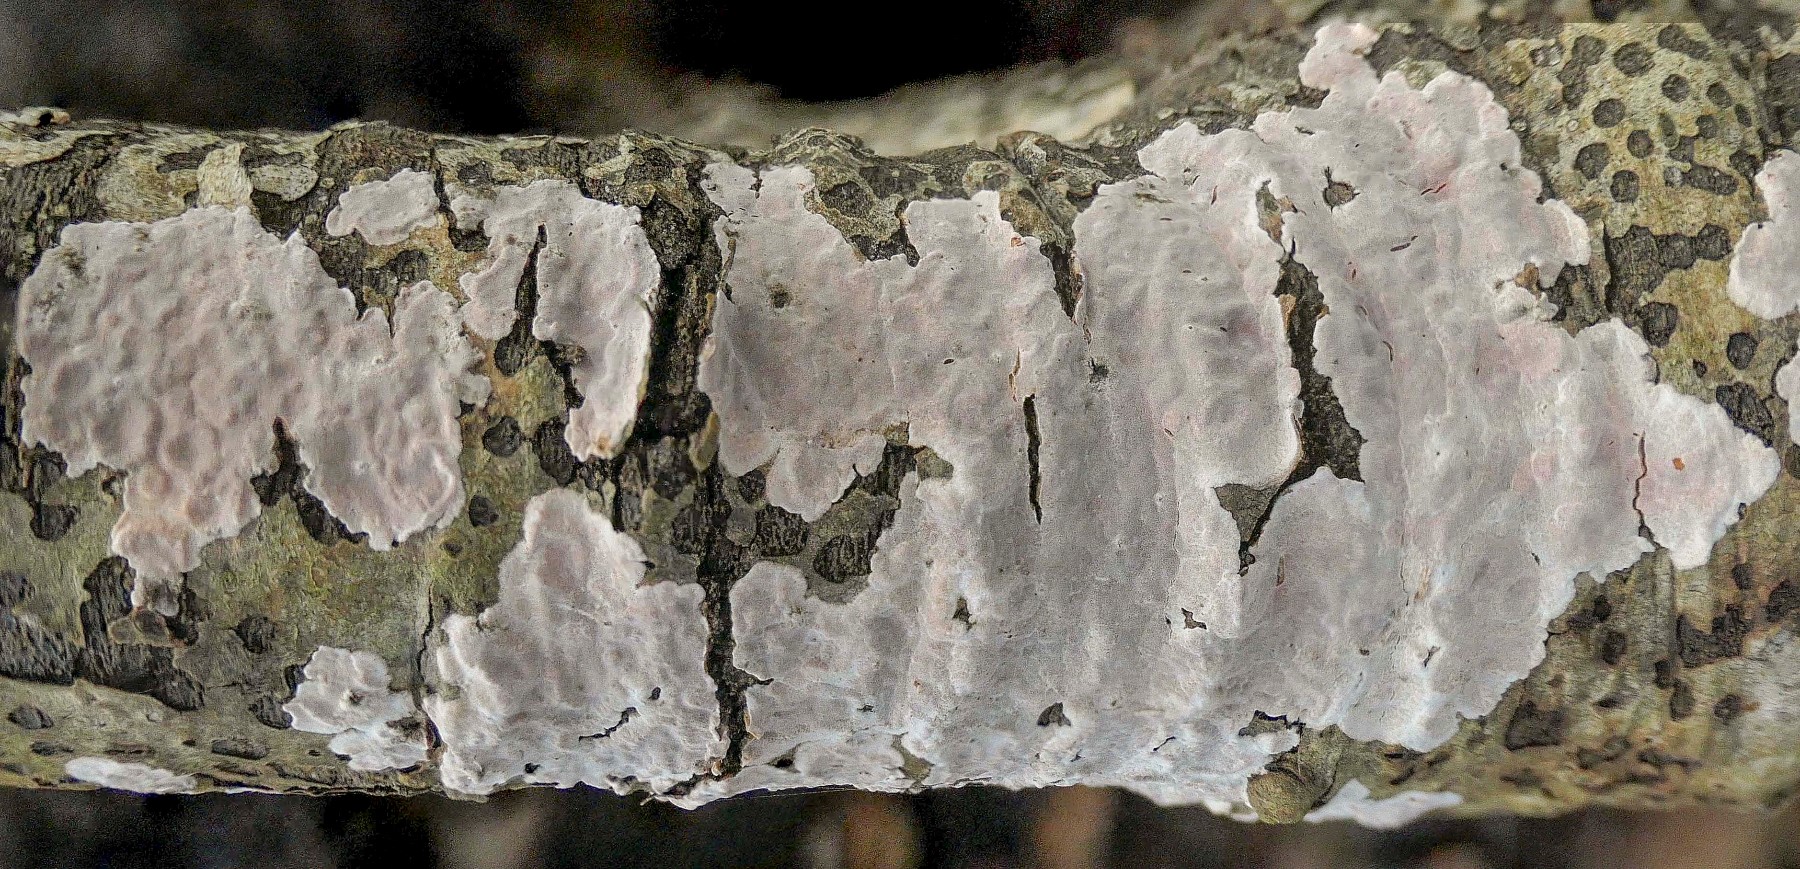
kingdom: Fungi
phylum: Basidiomycota
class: Agaricomycetes
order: Russulales
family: Peniophoraceae
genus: Peniophora
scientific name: Peniophora polygonia
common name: polygon-voksskind
